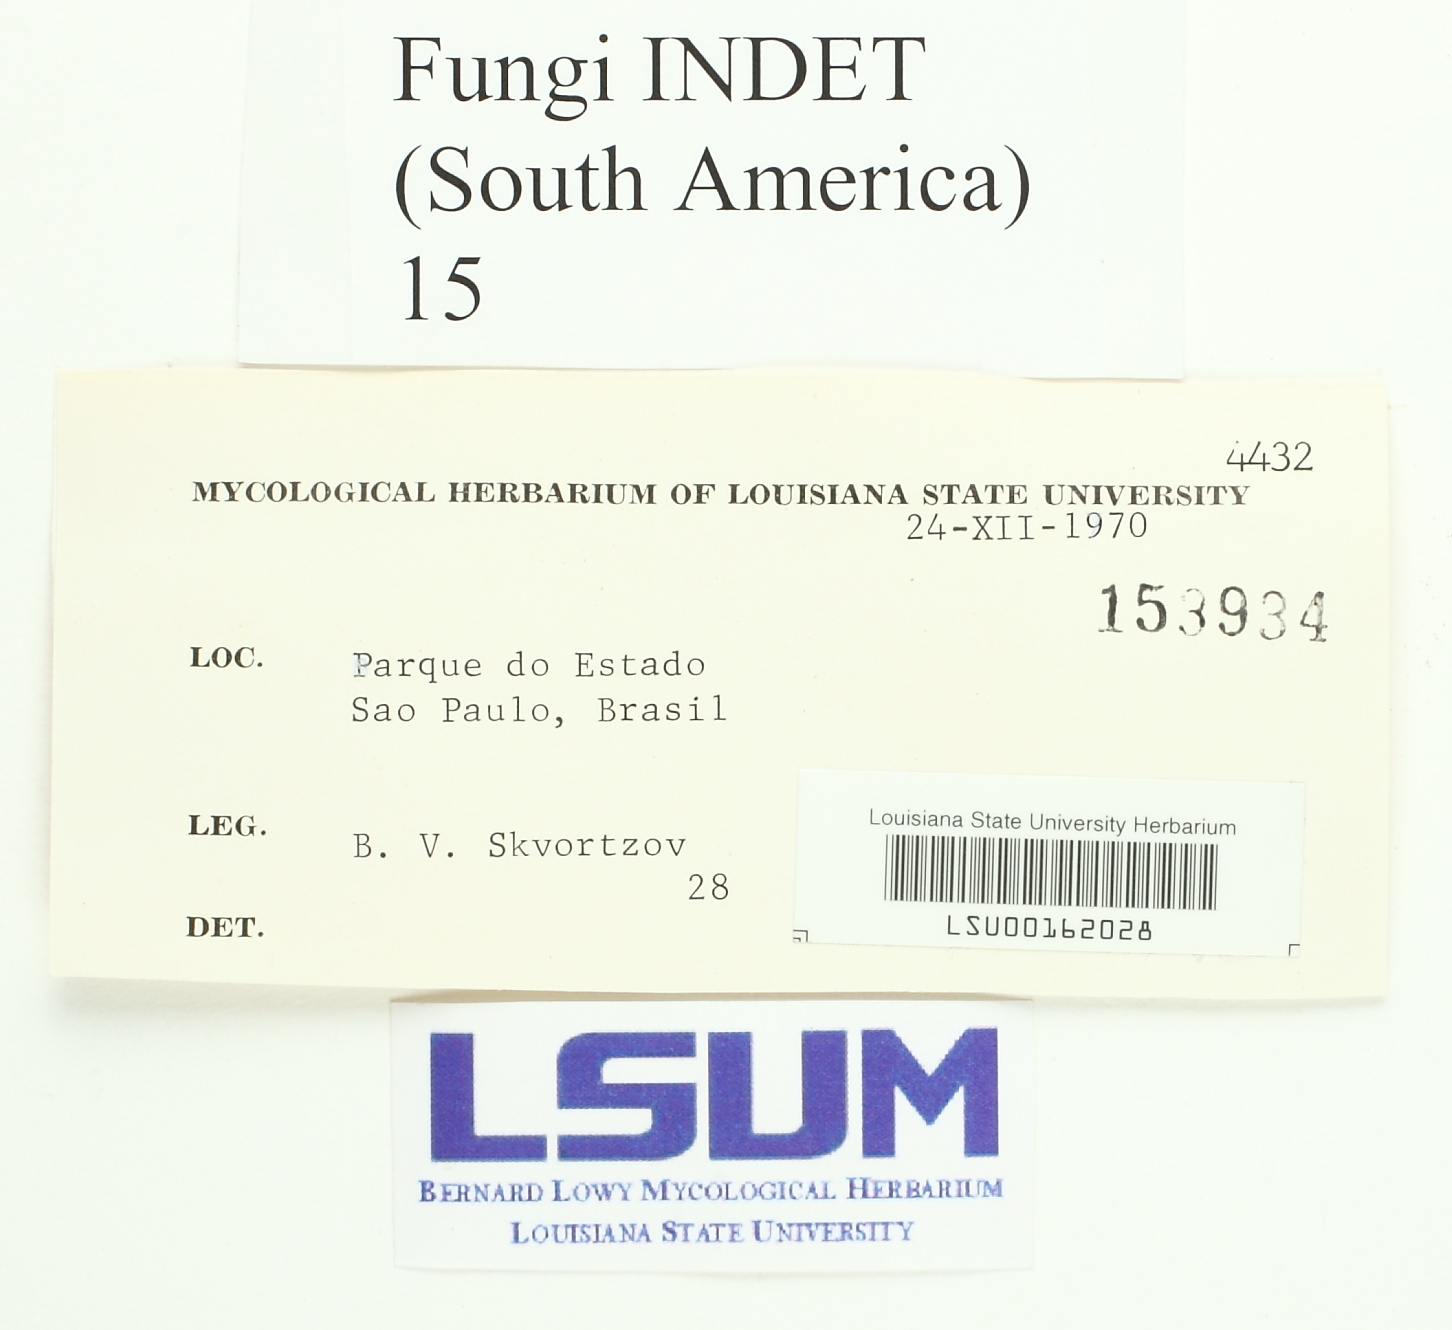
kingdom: Fungi
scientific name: Fungi
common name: Fungi
